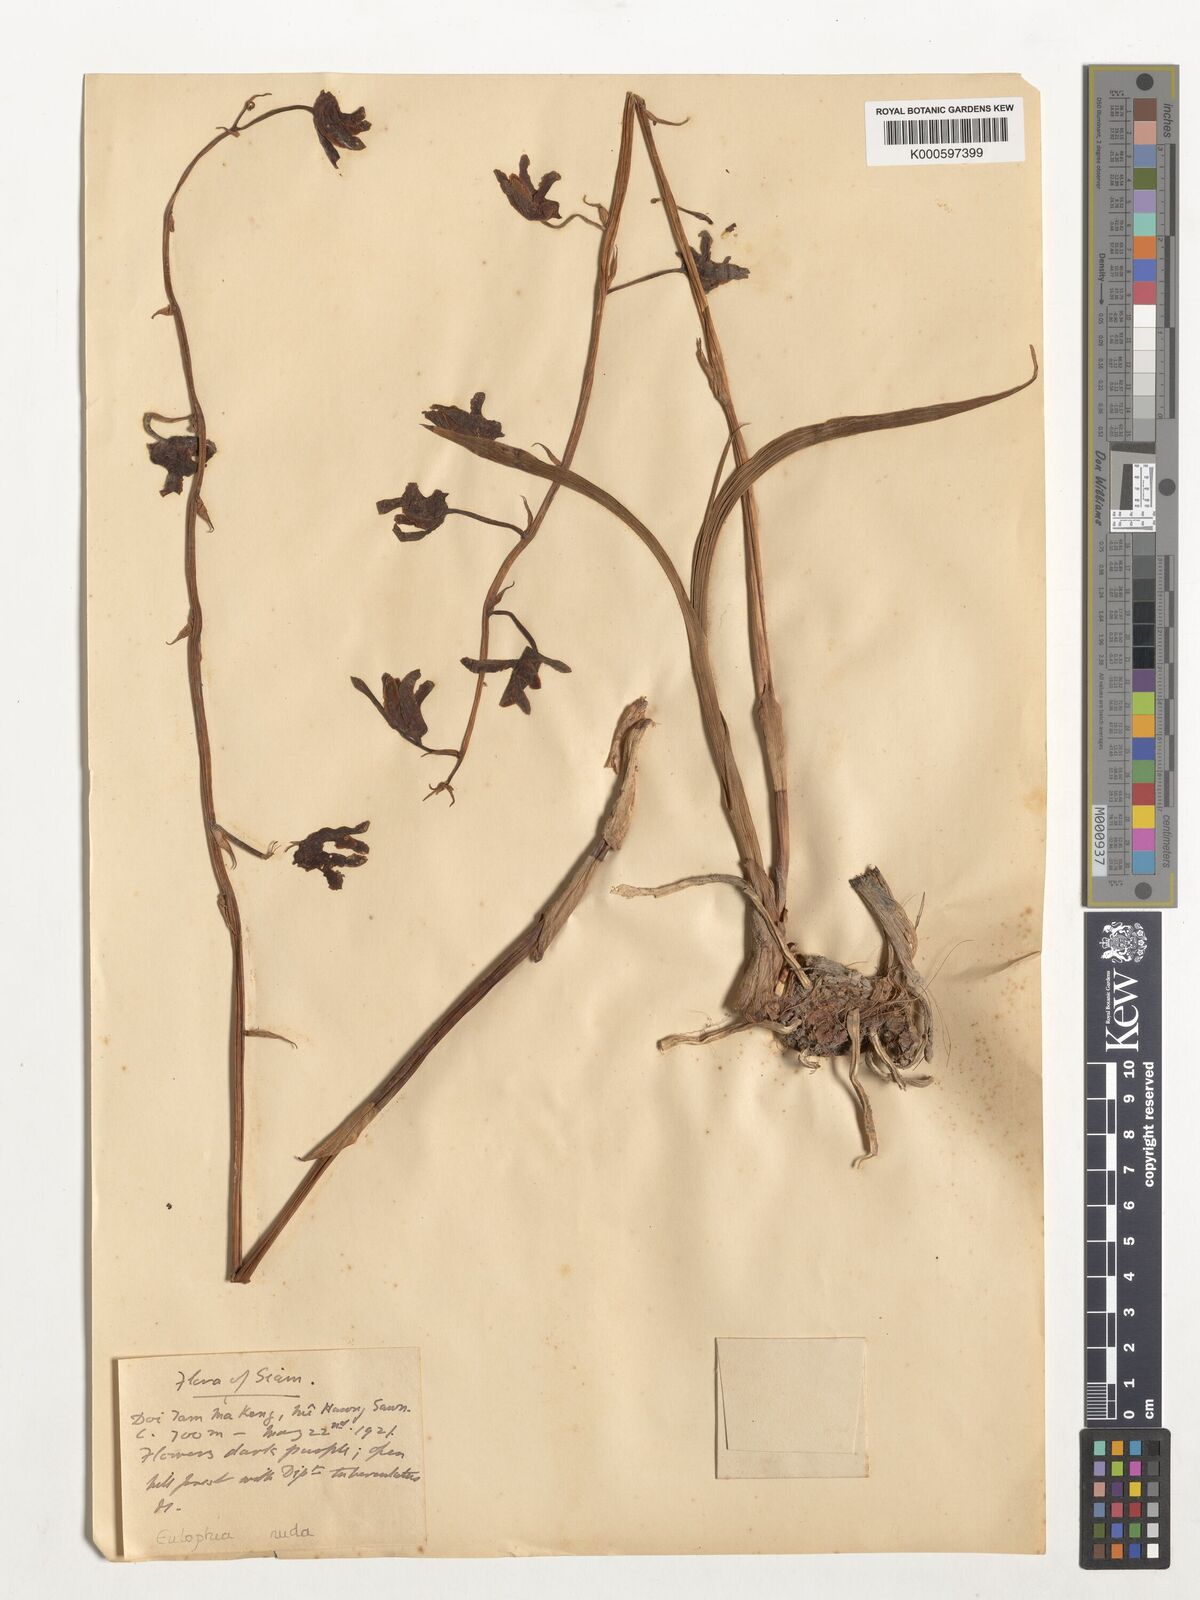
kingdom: Plantae
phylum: Tracheophyta
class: Liliopsida
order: Asparagales
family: Orchidaceae
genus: Eulophia
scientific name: Eulophia nuda
